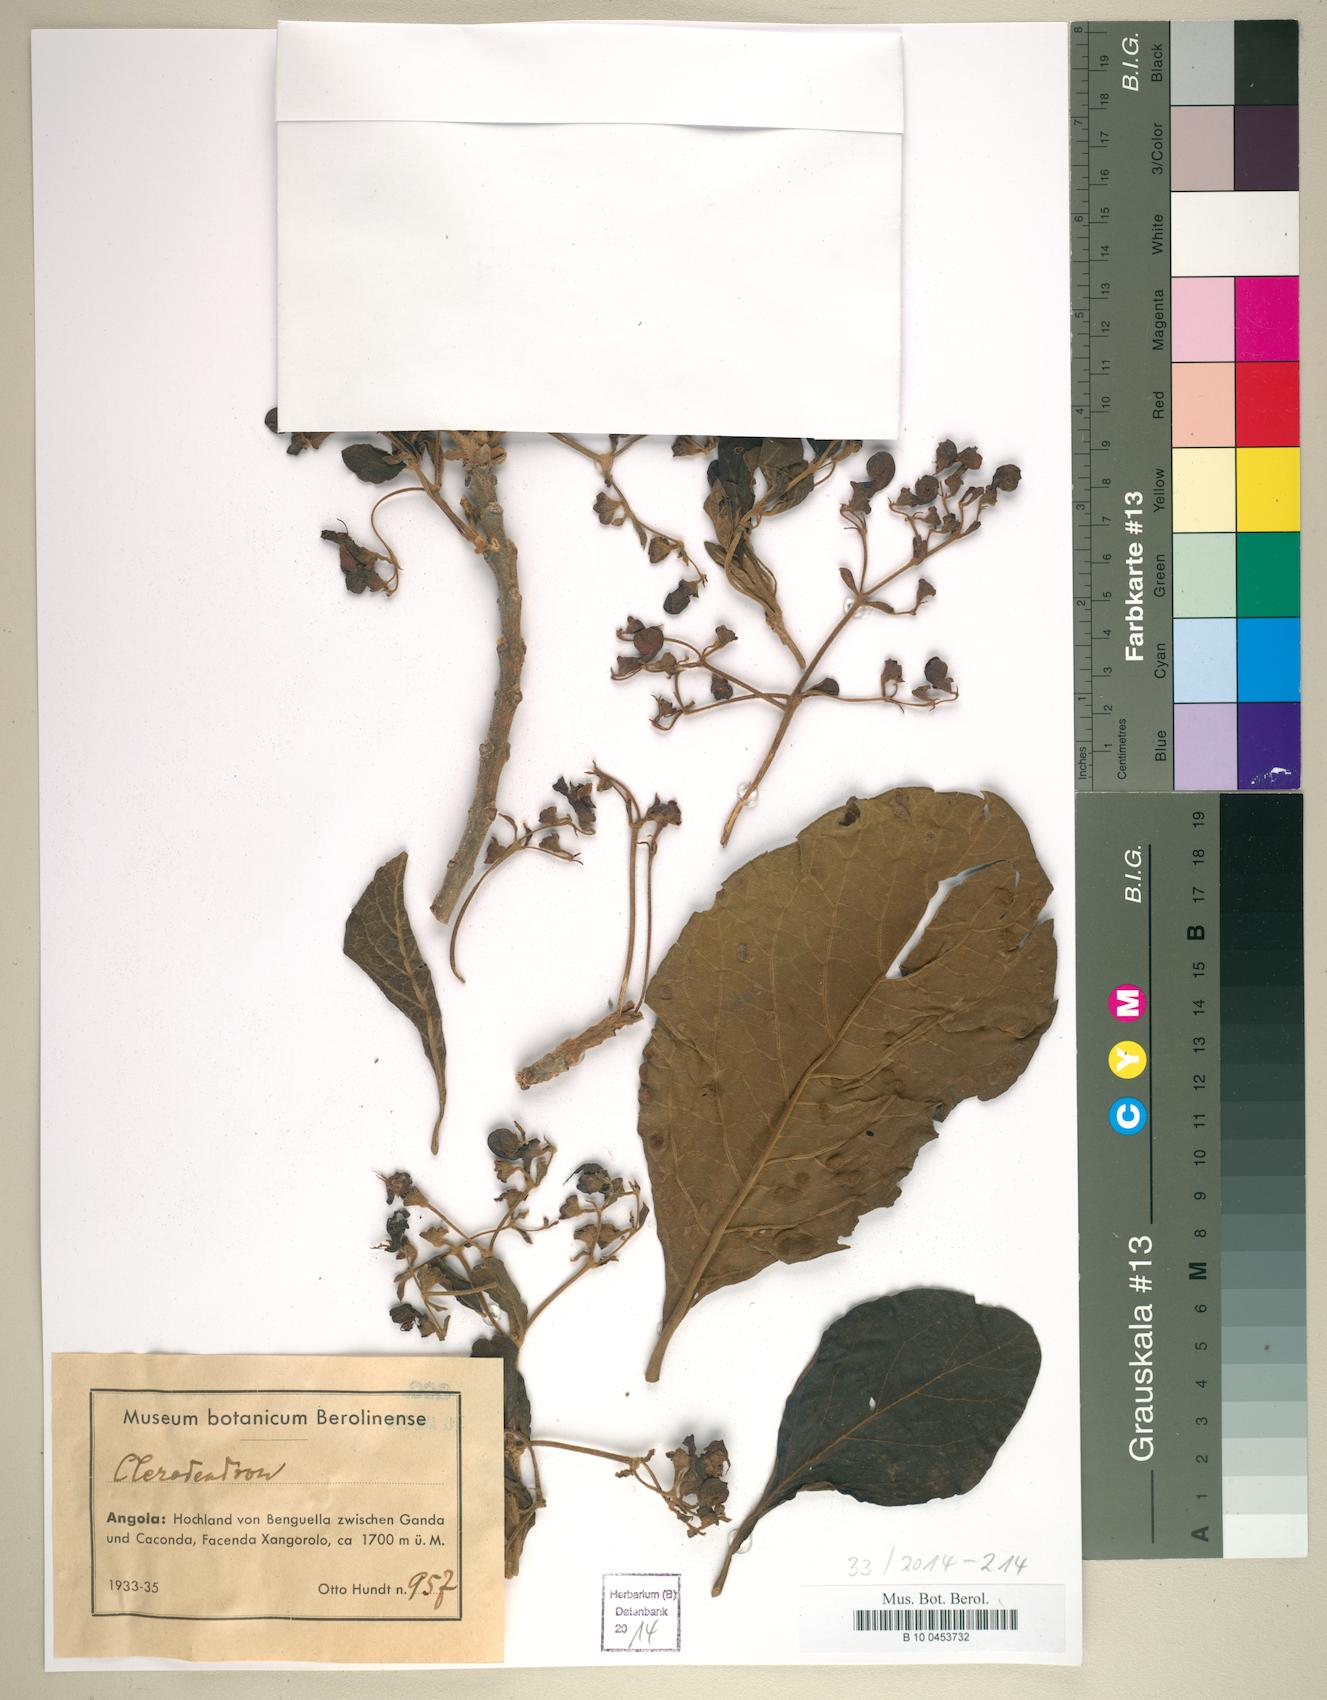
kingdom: Plantae
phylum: Tracheophyta
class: Magnoliopsida
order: Lamiales
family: Lamiaceae
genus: Clerodendrum
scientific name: Clerodendrum
